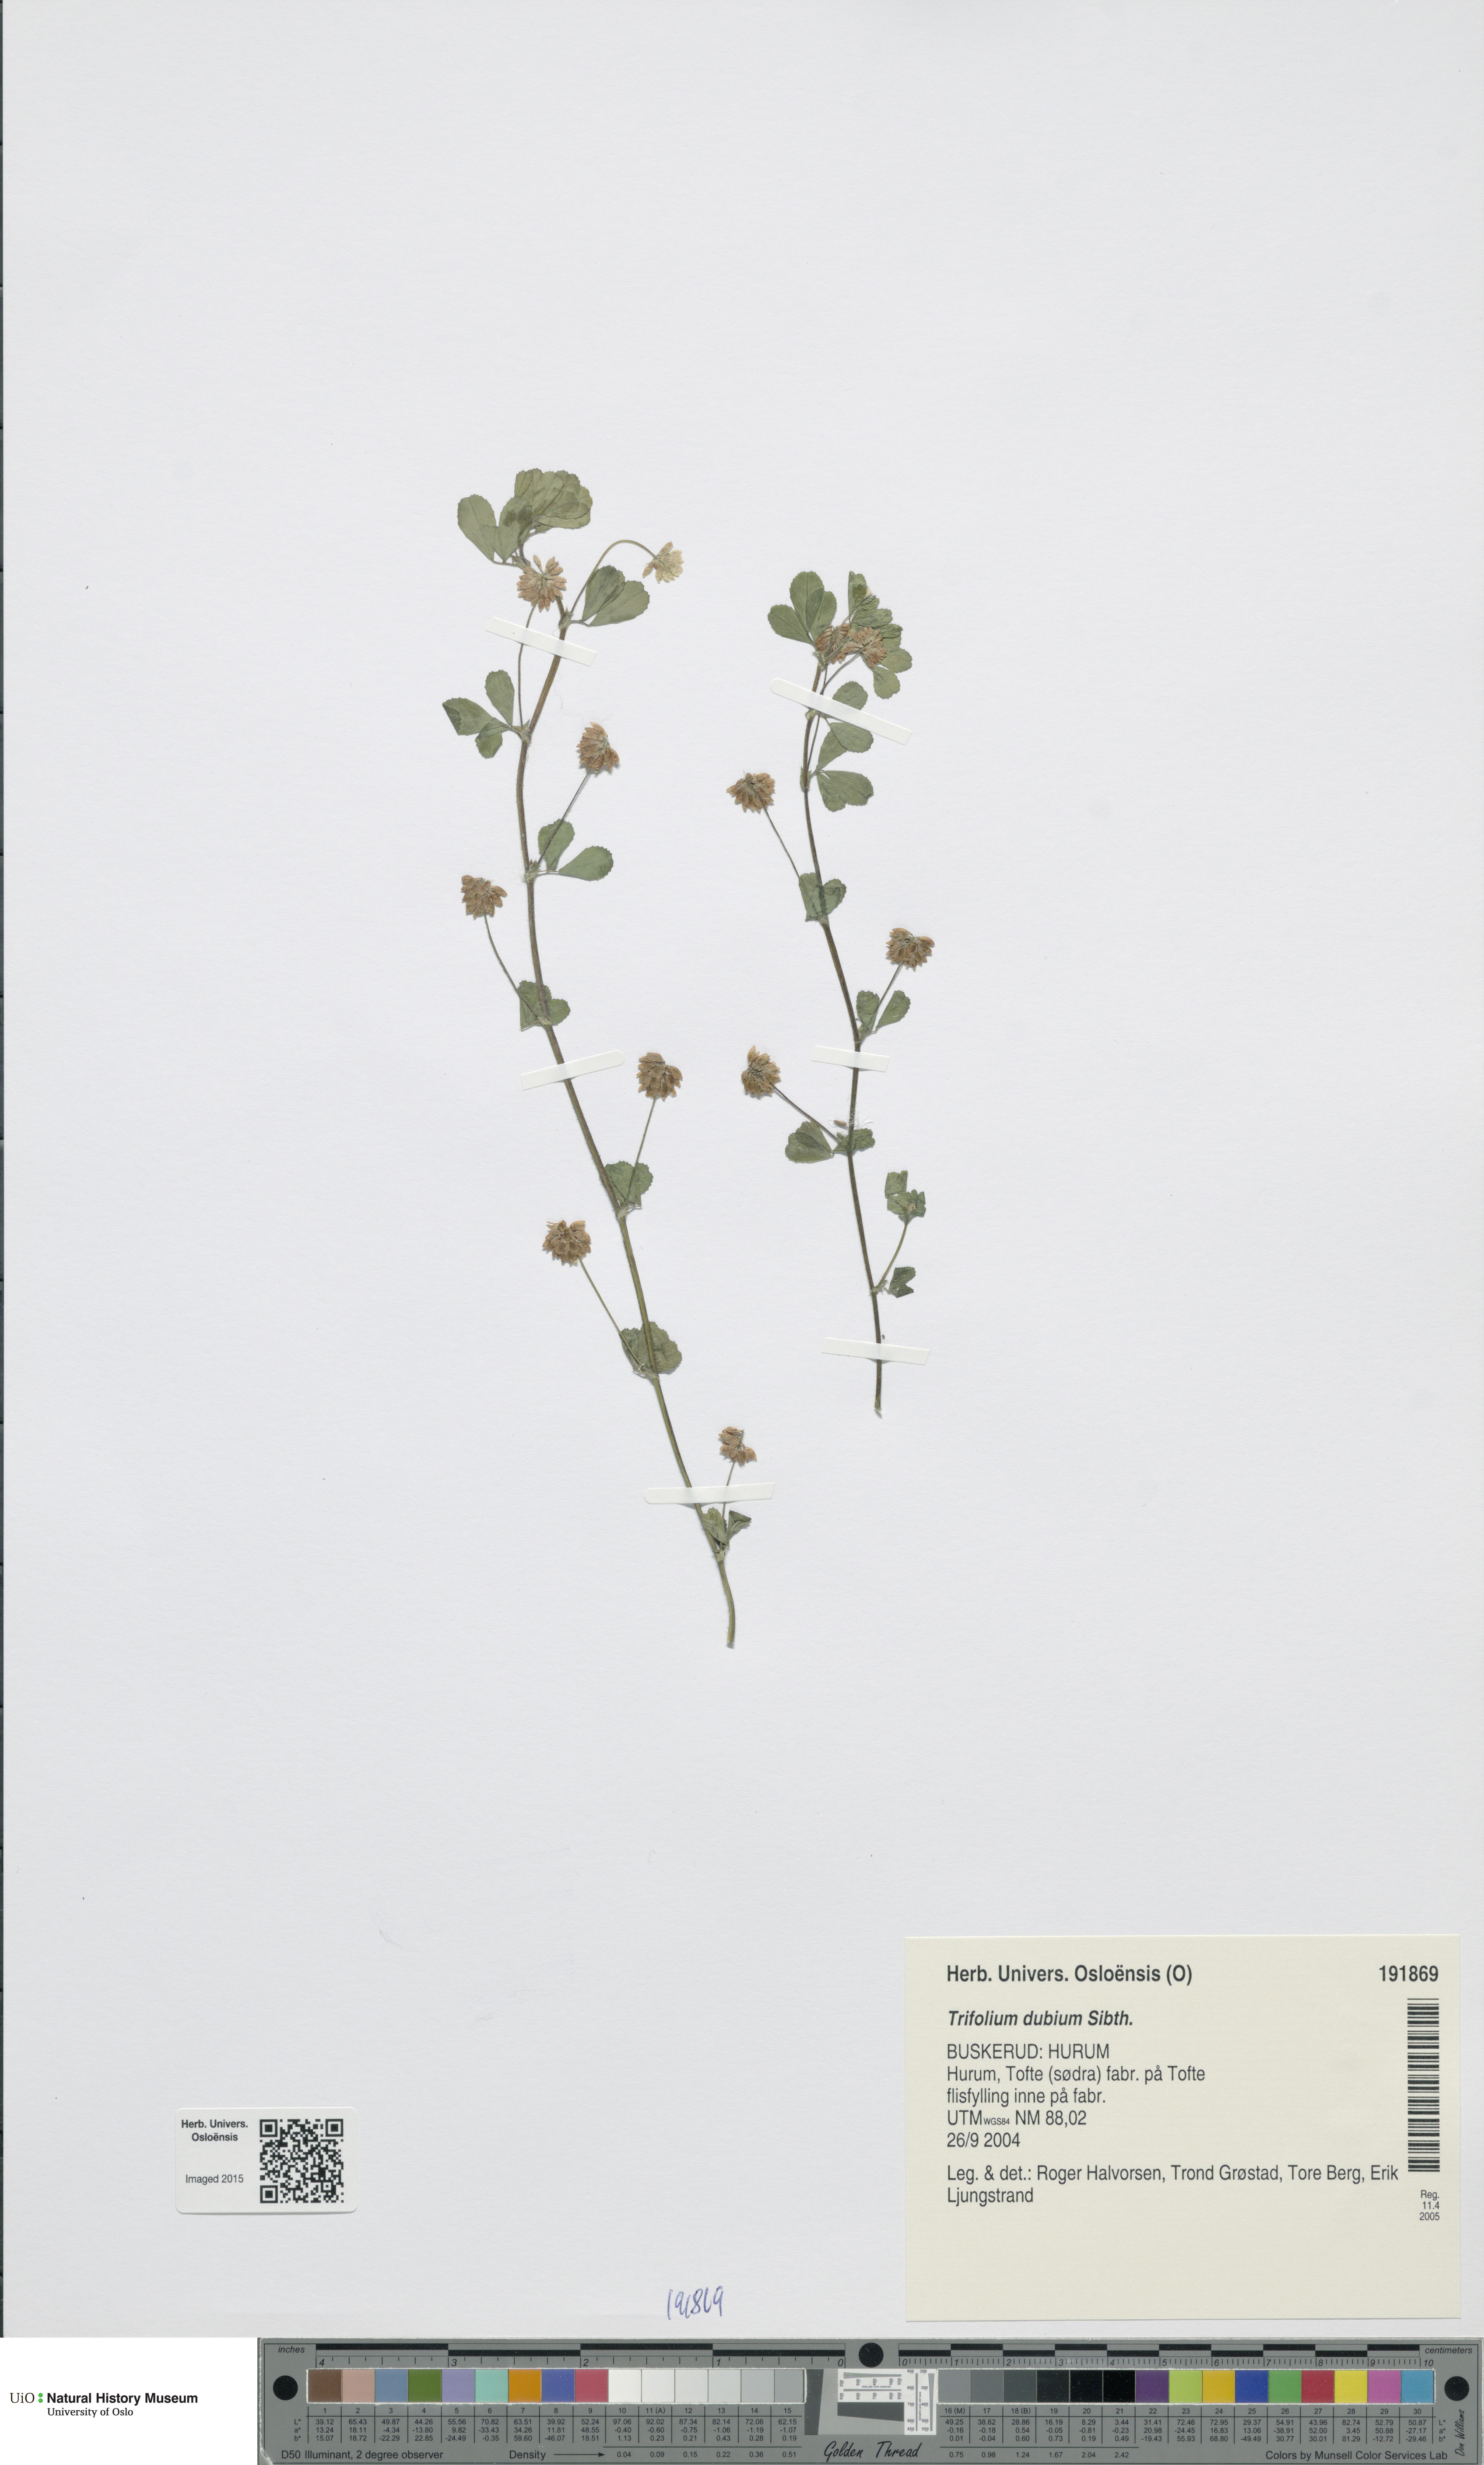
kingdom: Plantae
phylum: Tracheophyta
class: Magnoliopsida
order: Fabales
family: Fabaceae
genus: Trifolium
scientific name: Trifolium dubium
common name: Suckling clover
